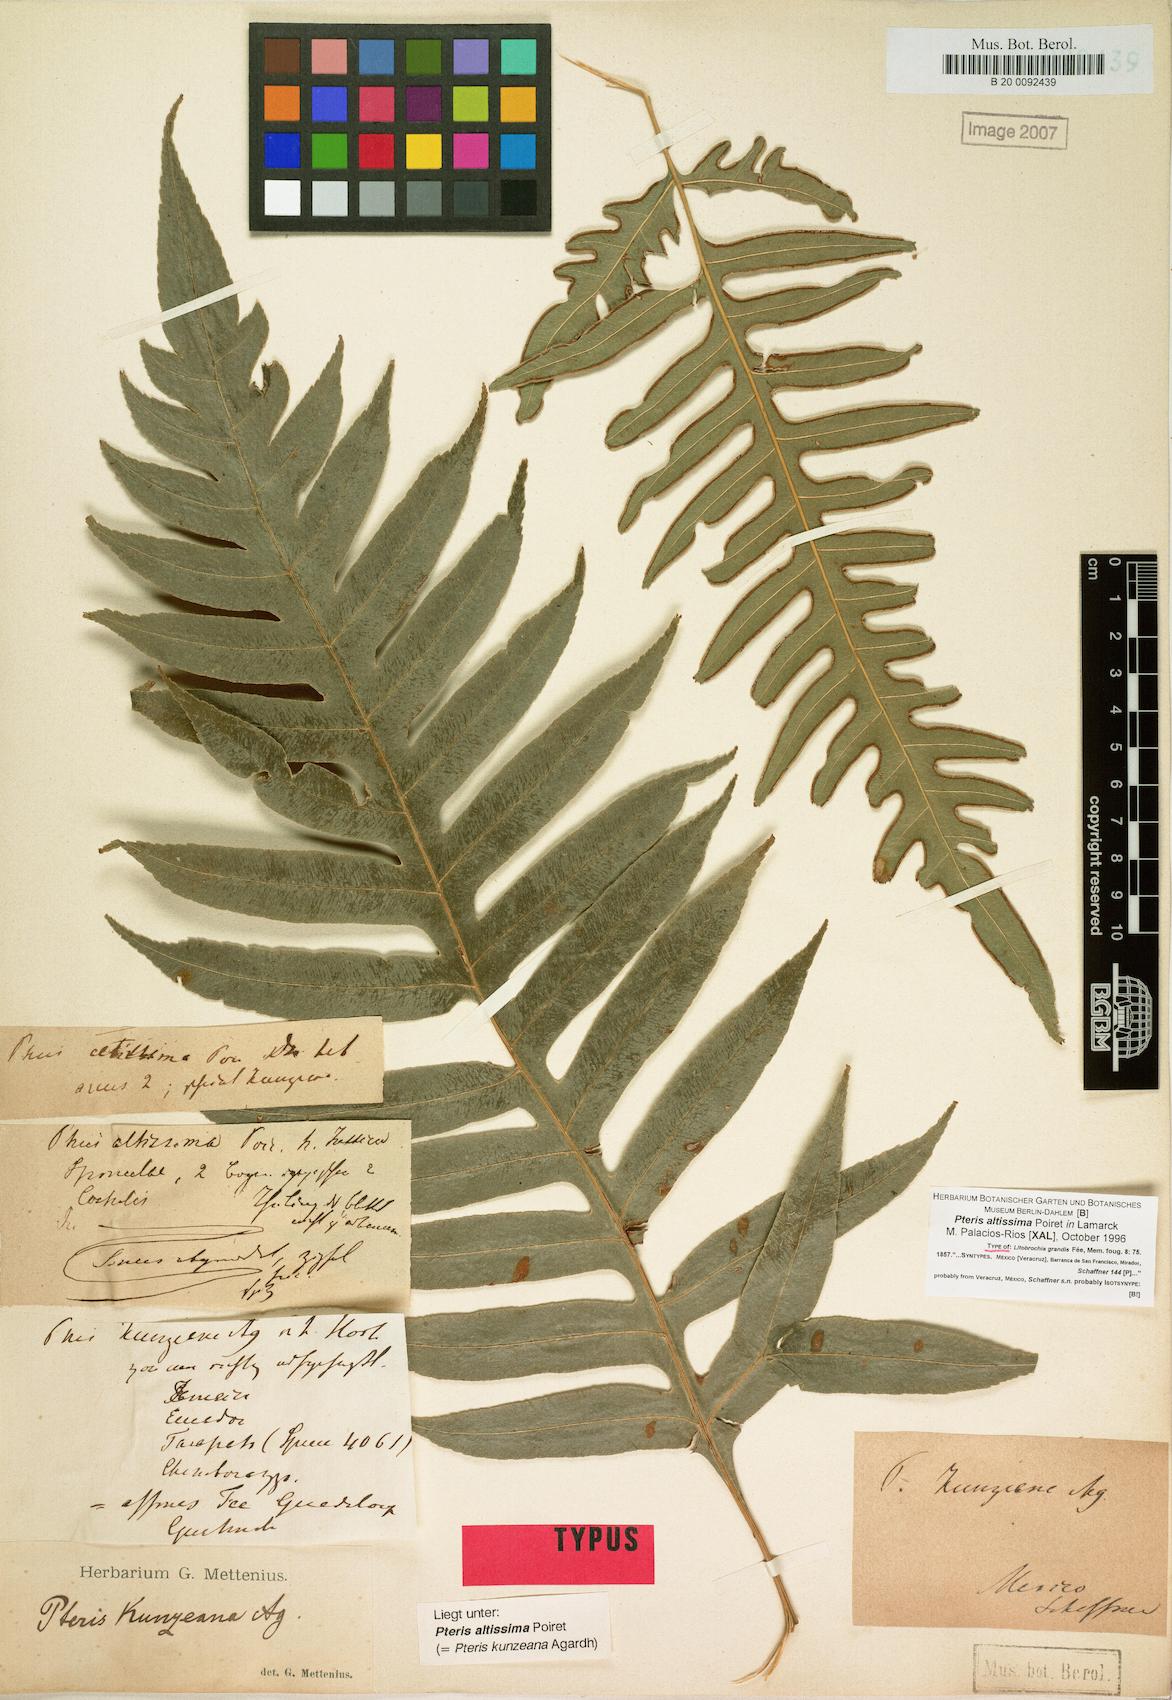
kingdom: Plantae
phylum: Tracheophyta
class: Polypodiopsida
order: Polypodiales
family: Pteridaceae
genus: Pteris
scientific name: Pteris altissima
